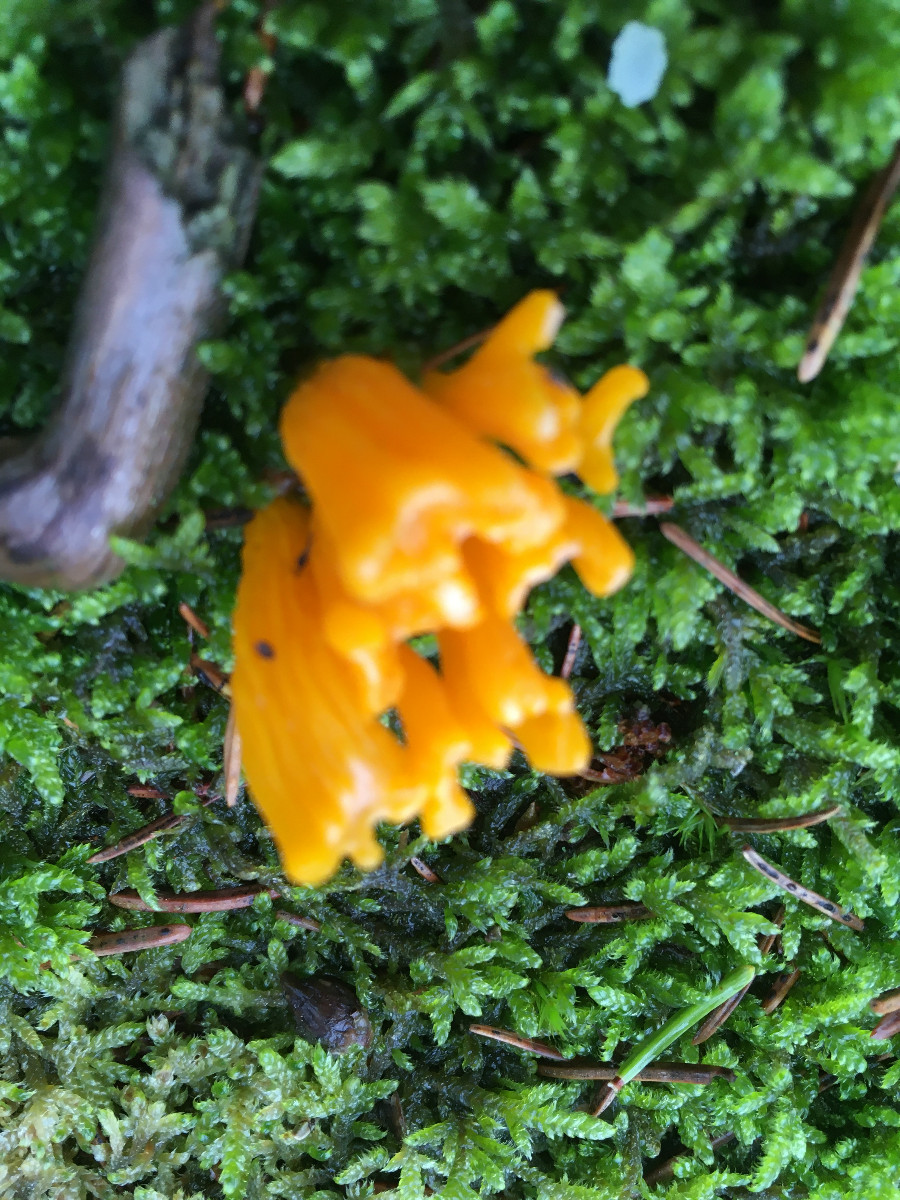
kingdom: Fungi
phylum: Basidiomycota
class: Dacrymycetes
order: Dacrymycetales
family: Dacrymycetaceae
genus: Calocera
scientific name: Calocera
